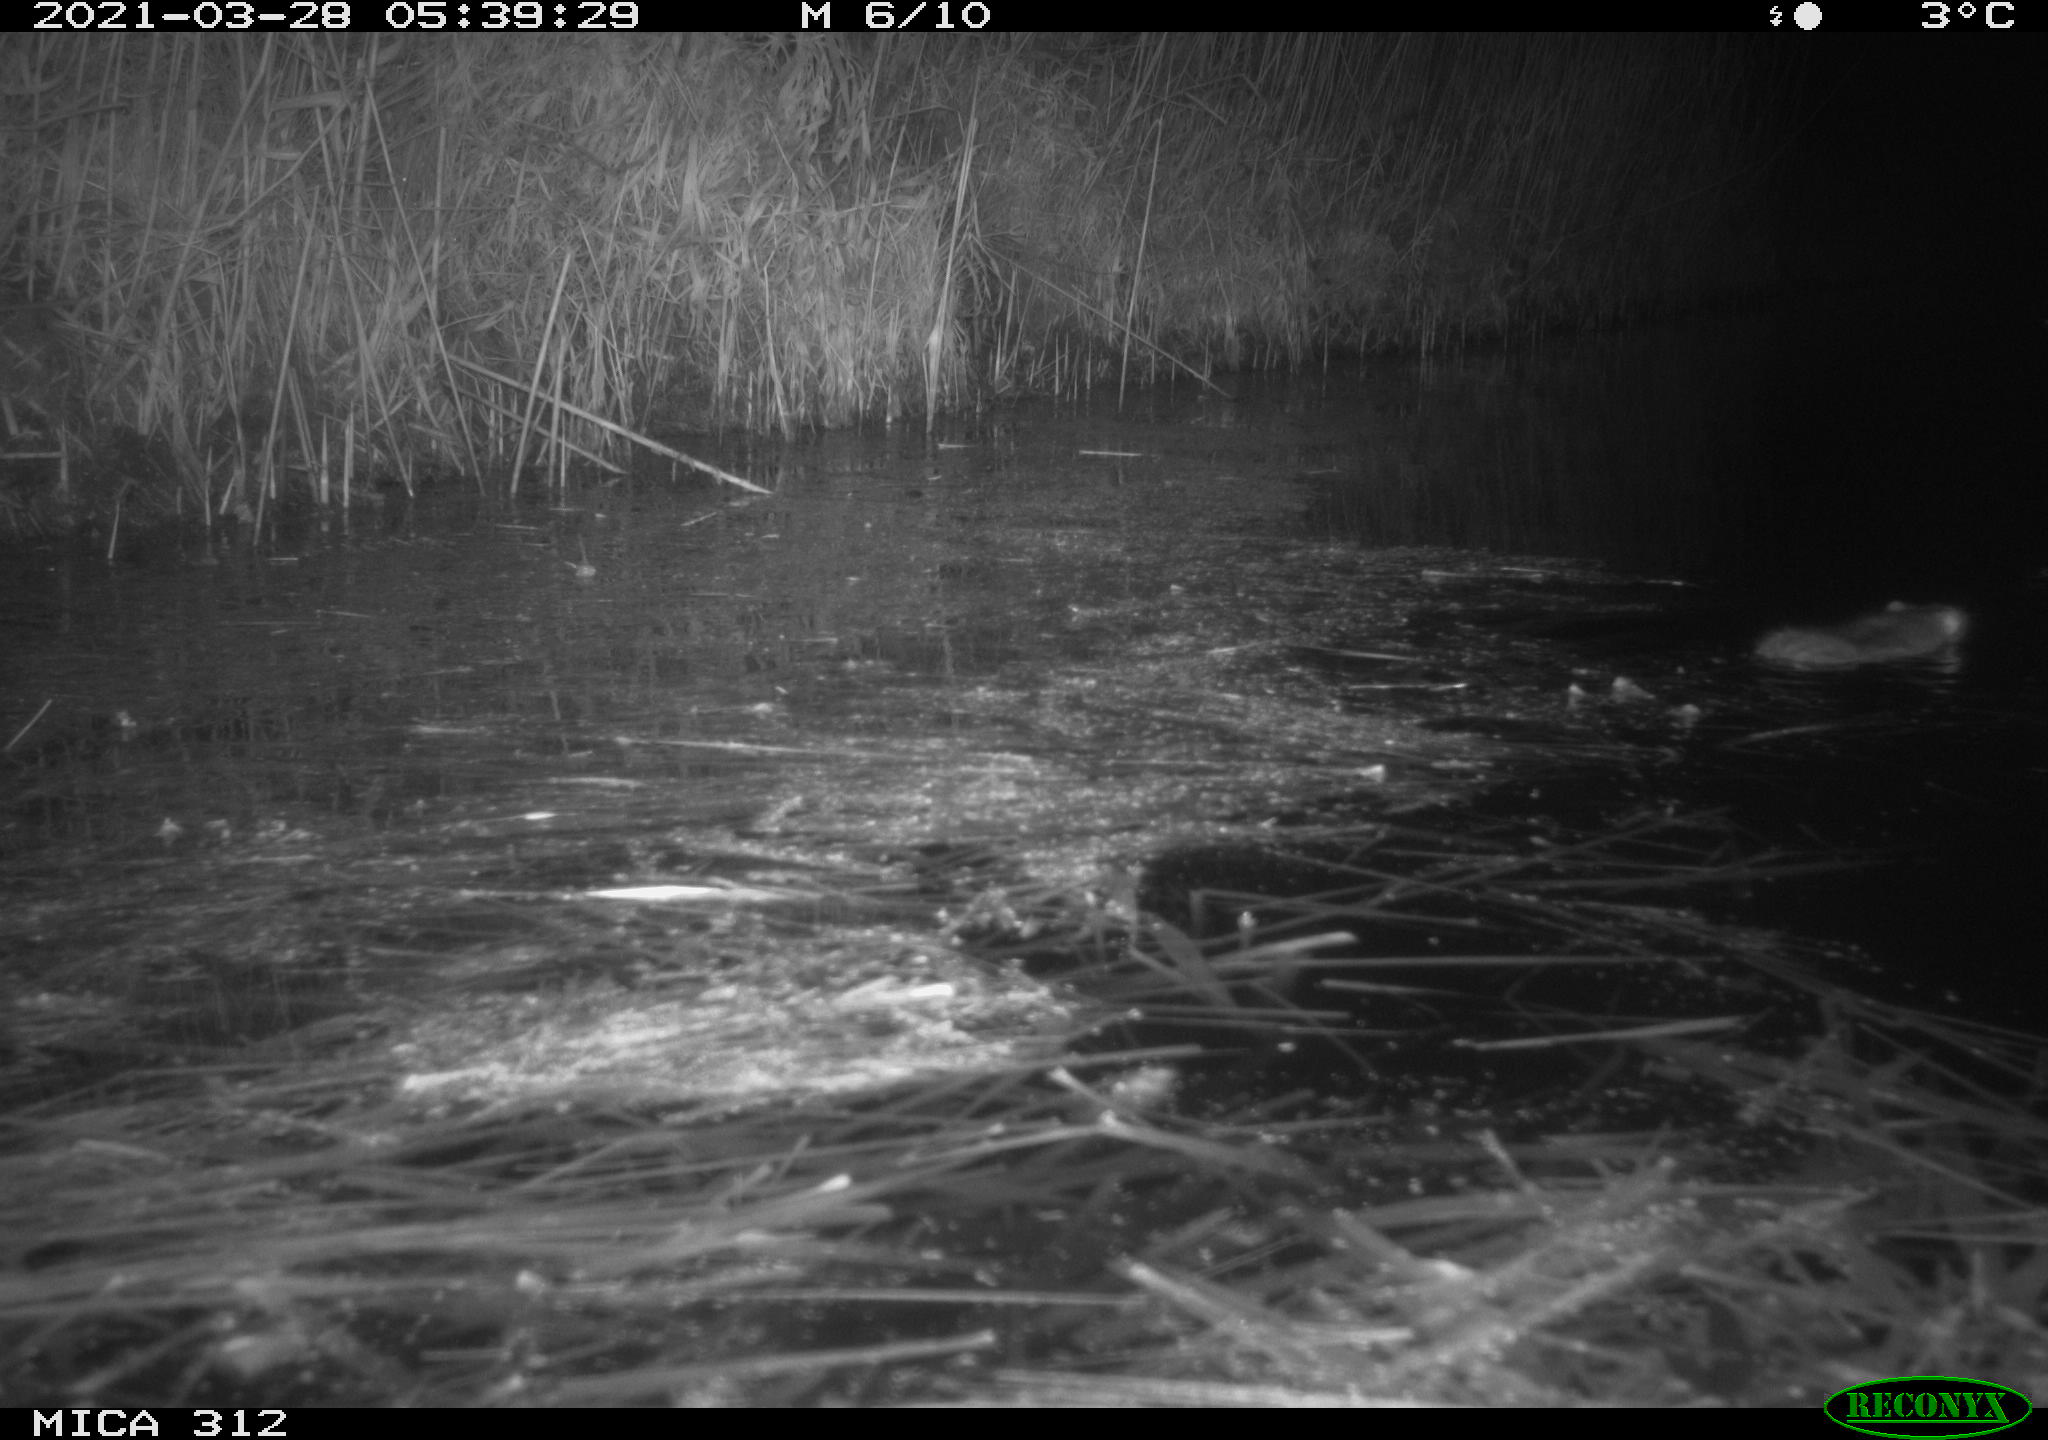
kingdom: Animalia
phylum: Chordata
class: Mammalia
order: Rodentia
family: Muridae
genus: Rattus
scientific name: Rattus norvegicus
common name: Brown rat
